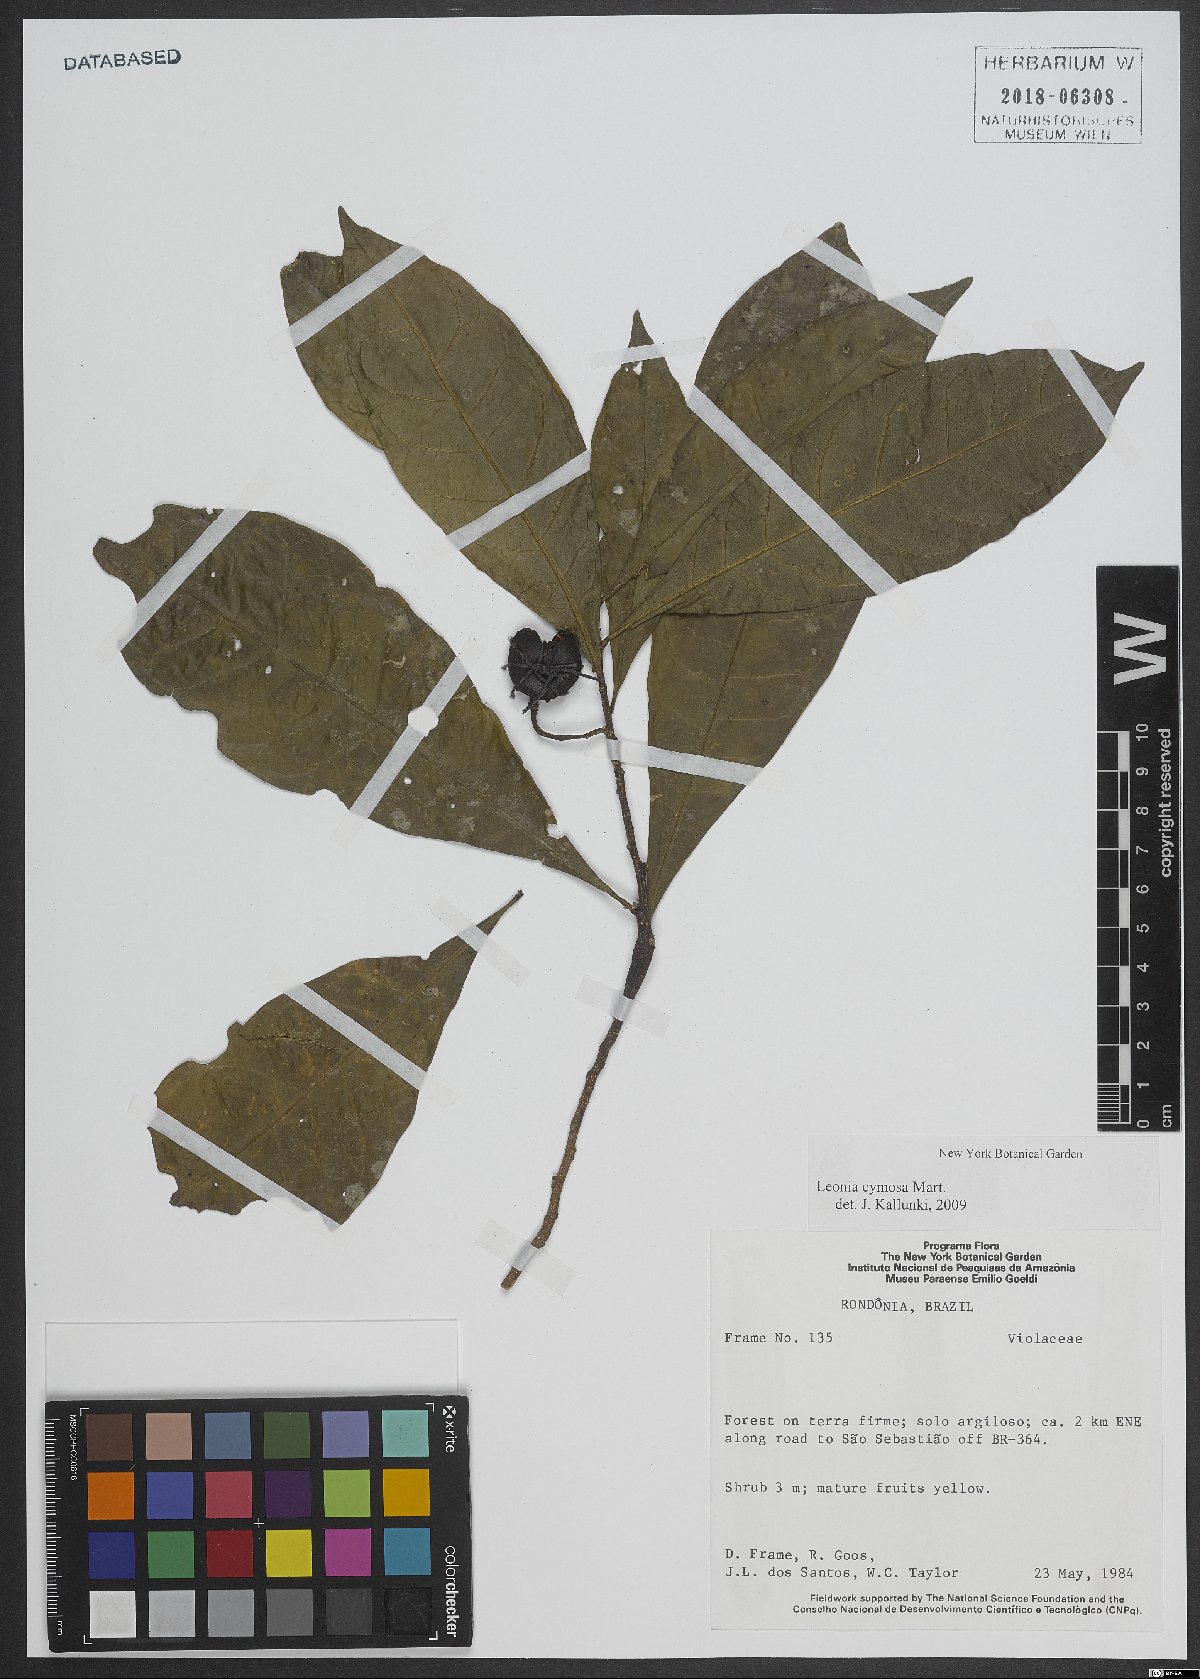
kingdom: Plantae
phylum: Tracheophyta
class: Magnoliopsida
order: Malpighiales
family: Violaceae
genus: Leonia
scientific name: Leonia cymosa
